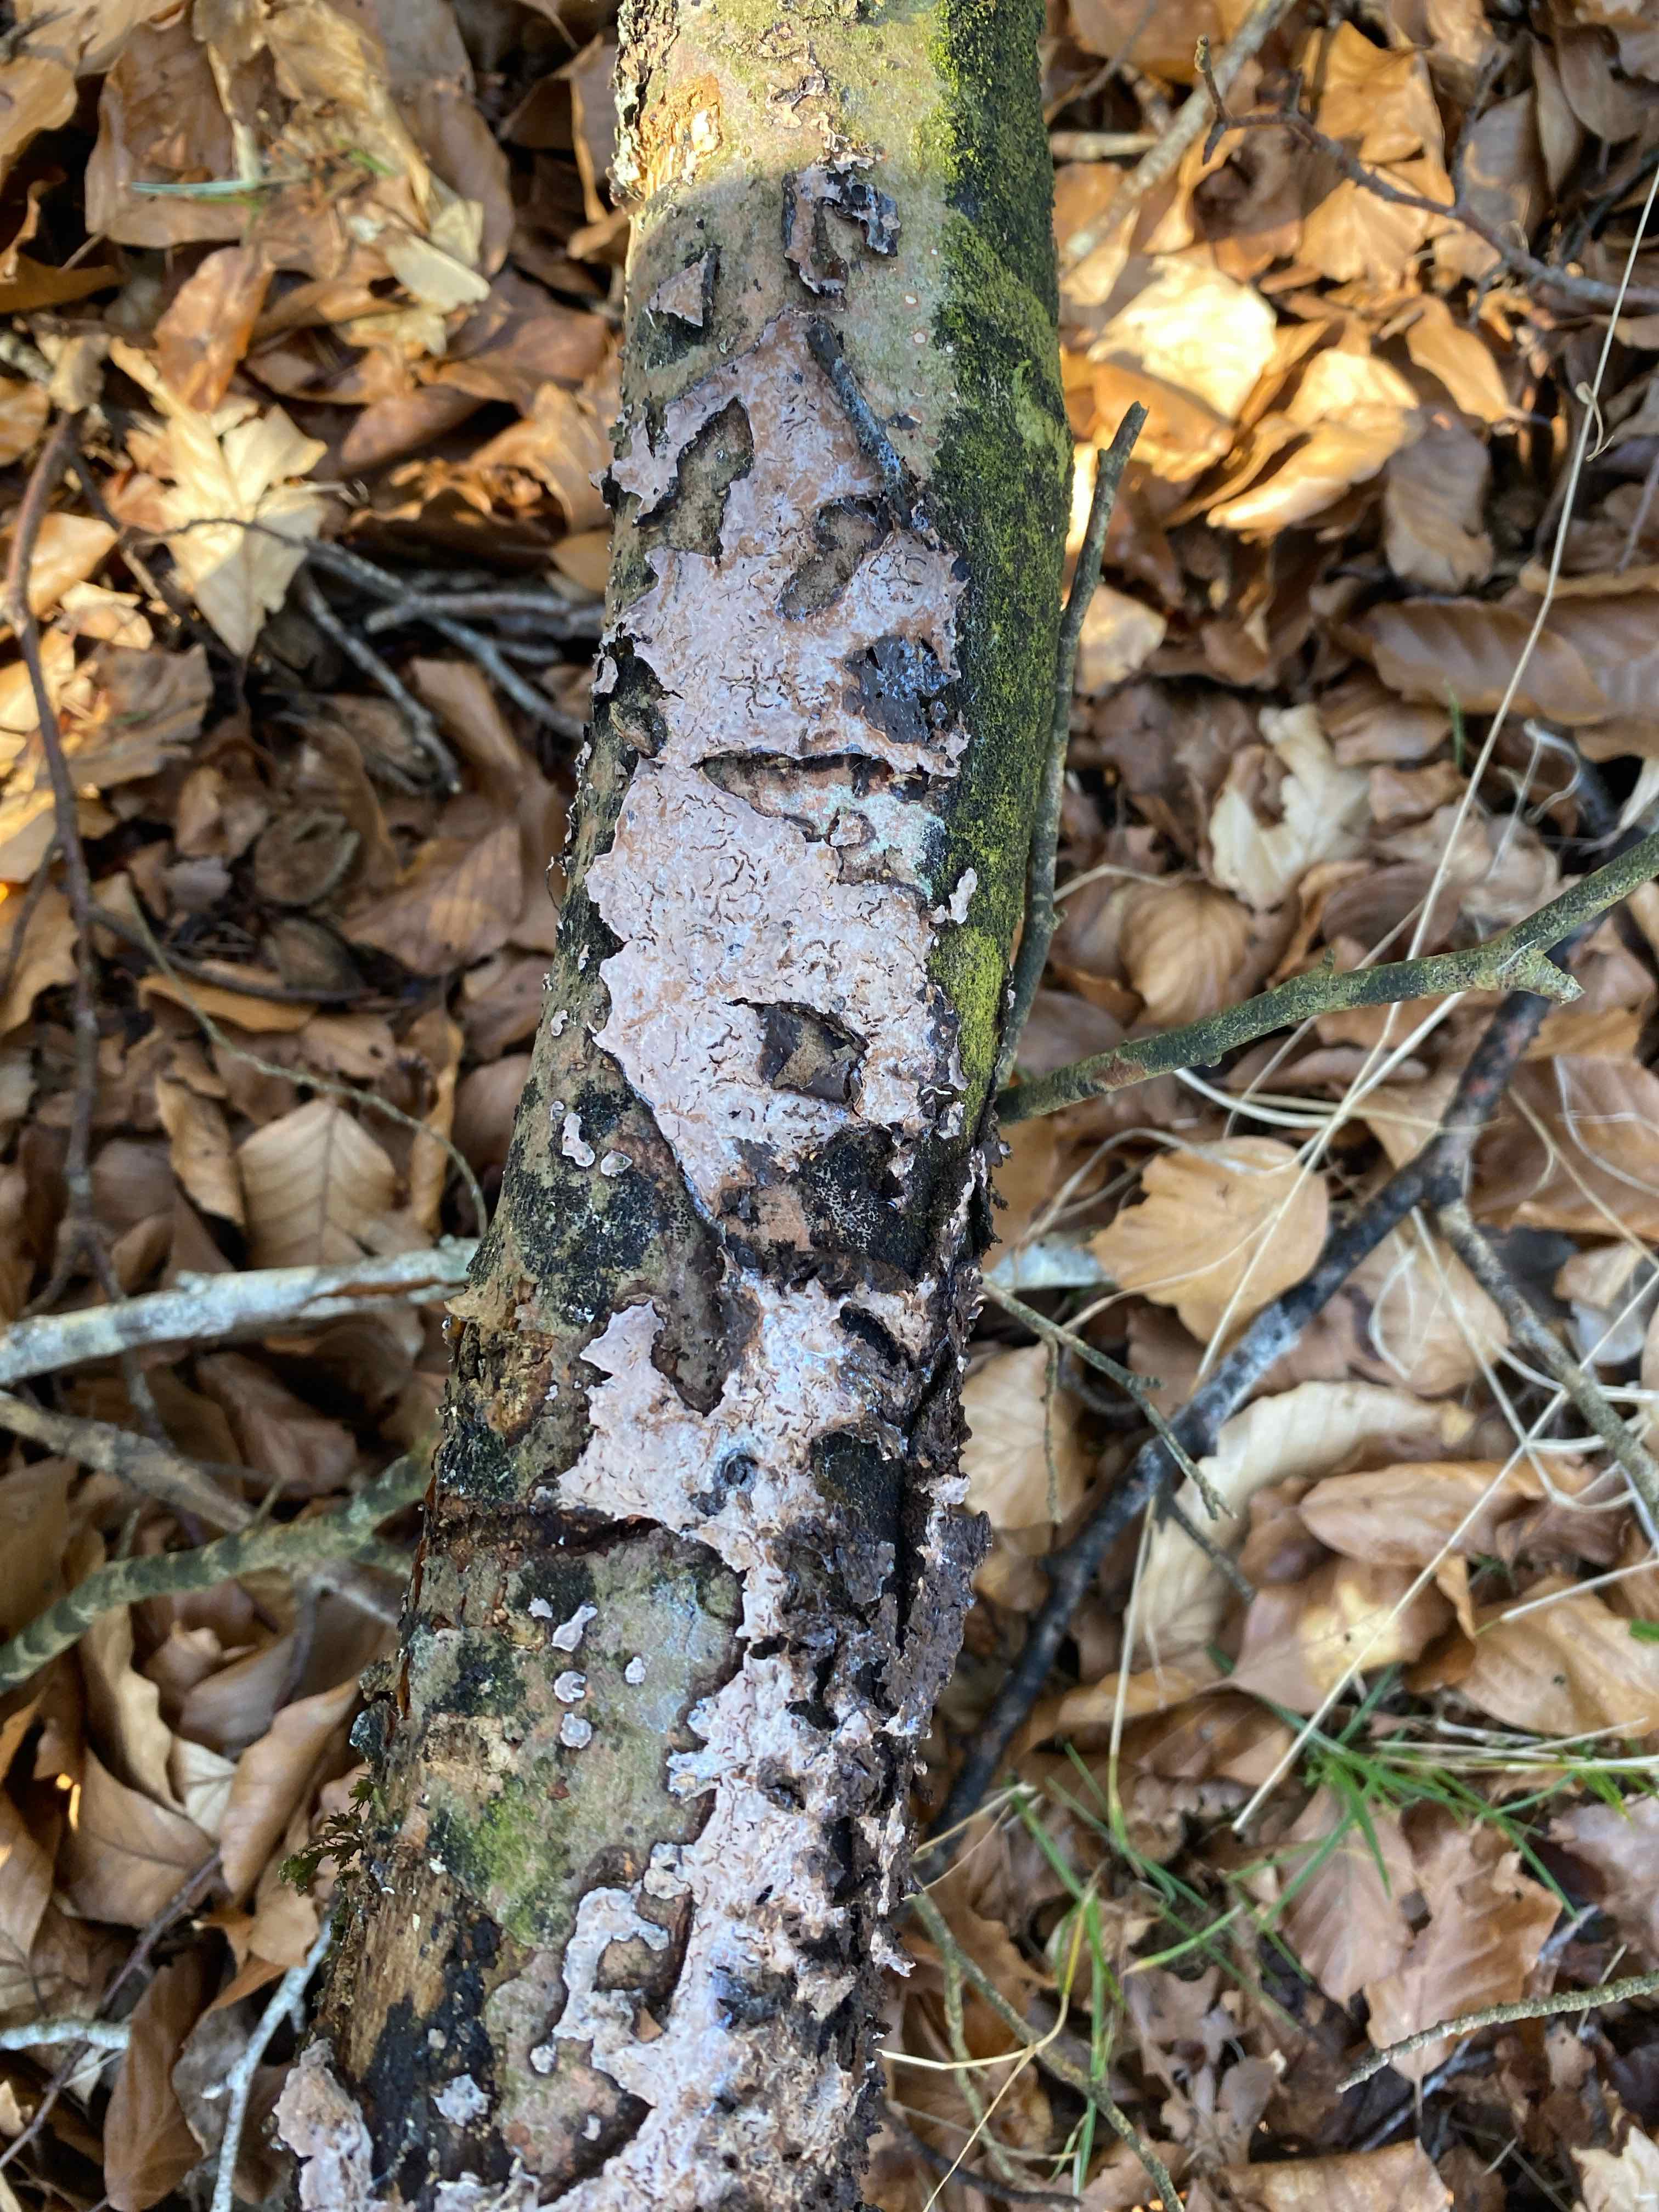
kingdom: Fungi
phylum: Basidiomycota
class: Agaricomycetes
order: Russulales
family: Peniophoraceae
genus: Peniophora
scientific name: Peniophora quercina
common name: ege-voksskind
